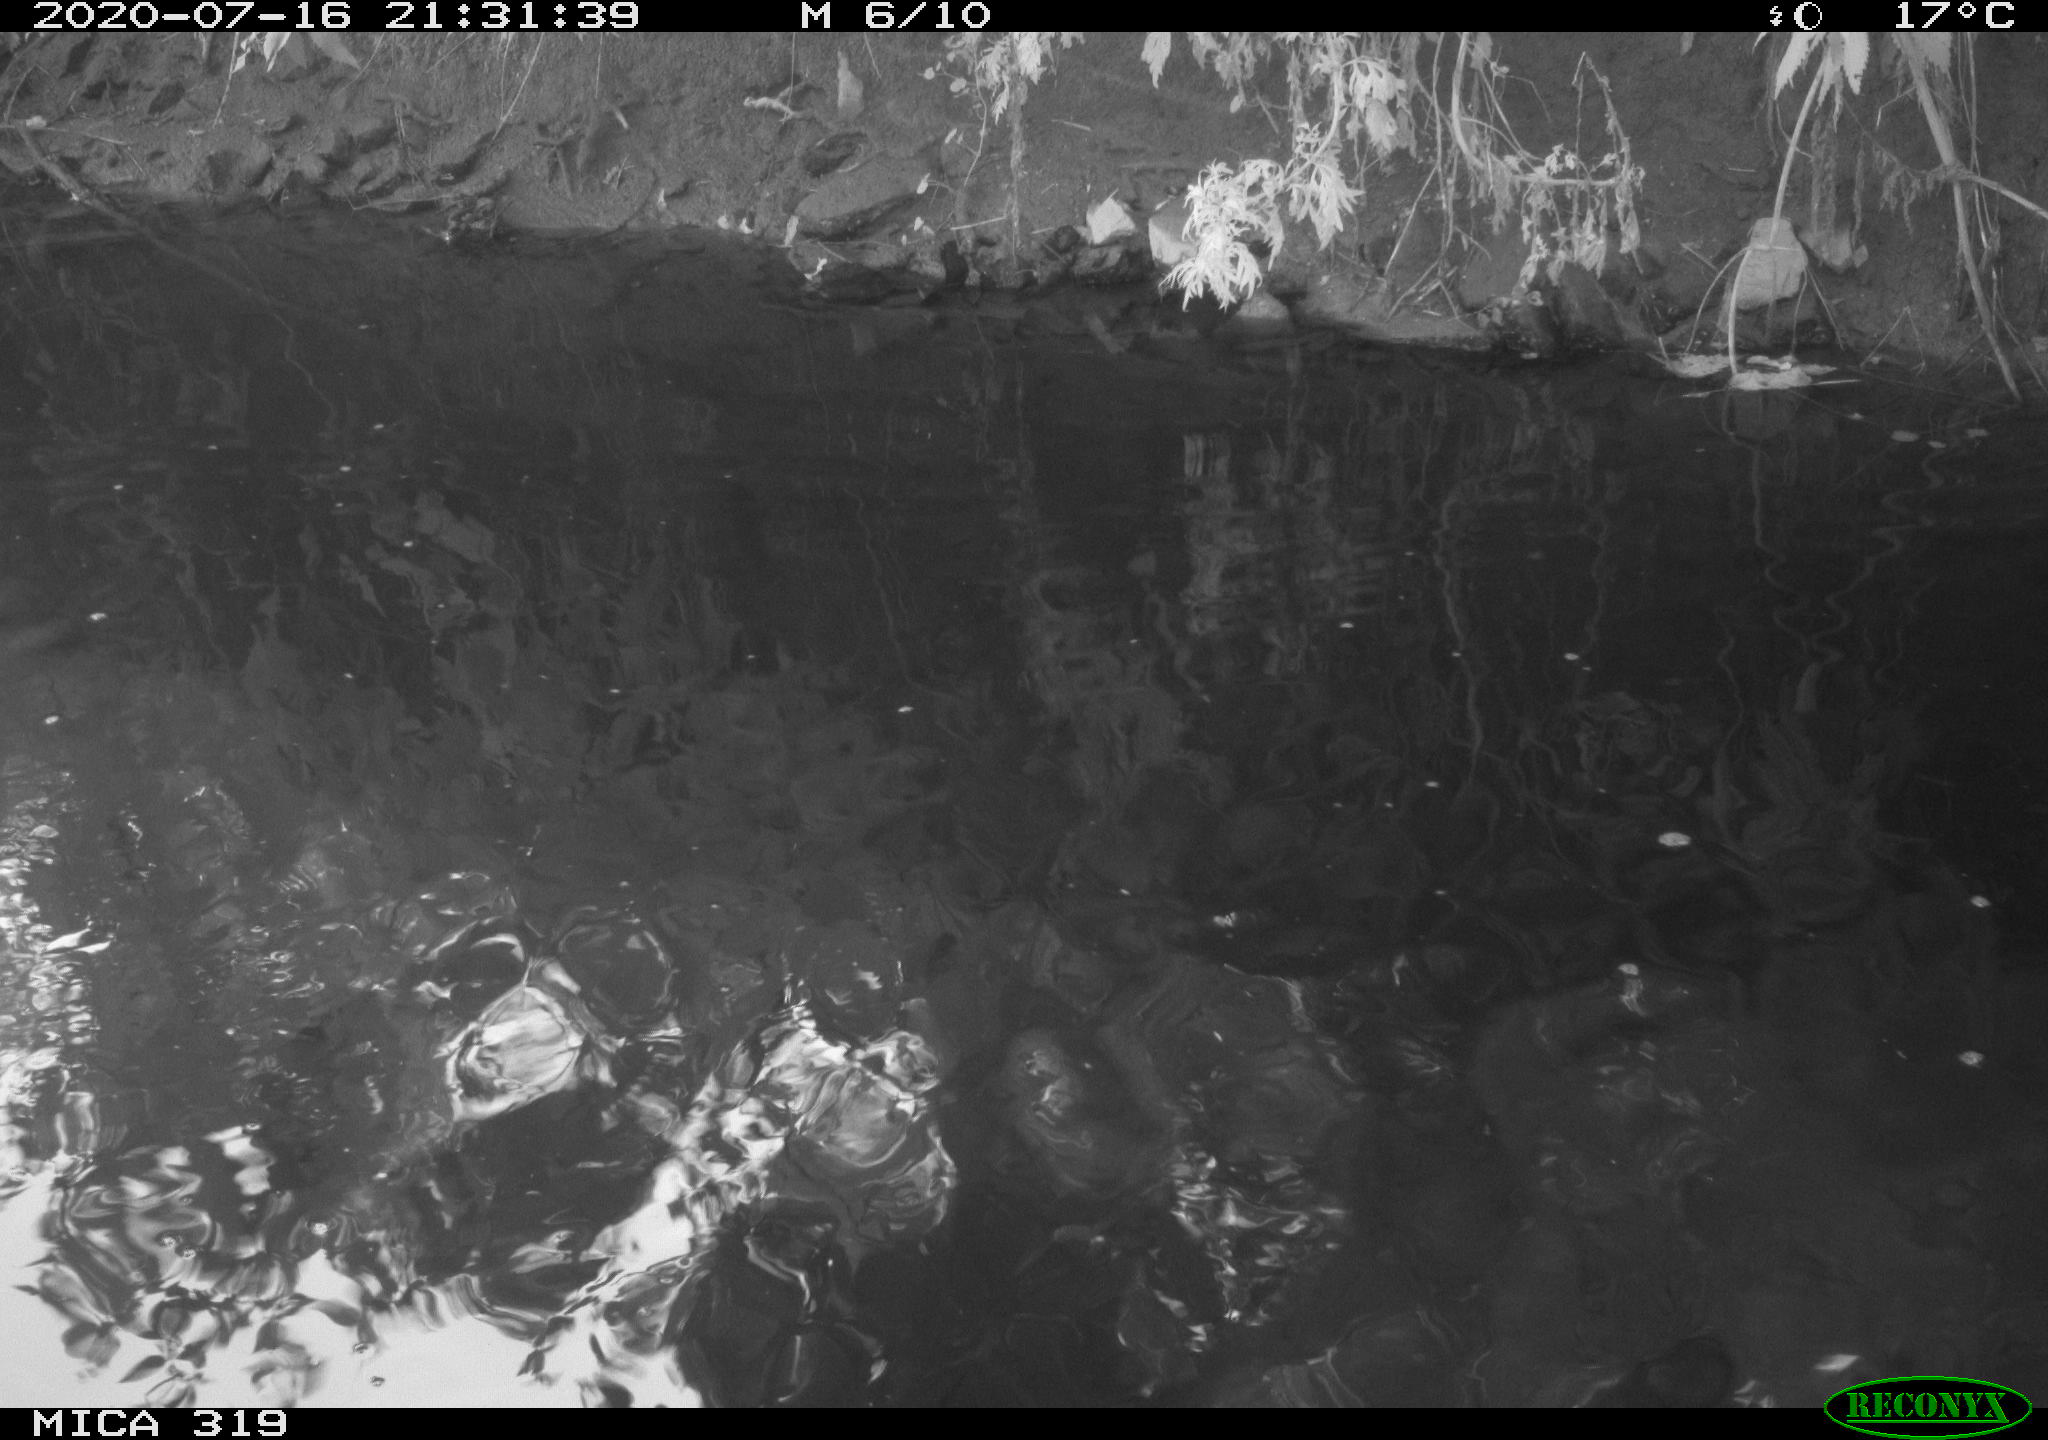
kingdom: Animalia
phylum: Chordata
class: Aves
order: Anseriformes
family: Anatidae
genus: Anas
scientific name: Anas platyrhynchos
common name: Mallard
